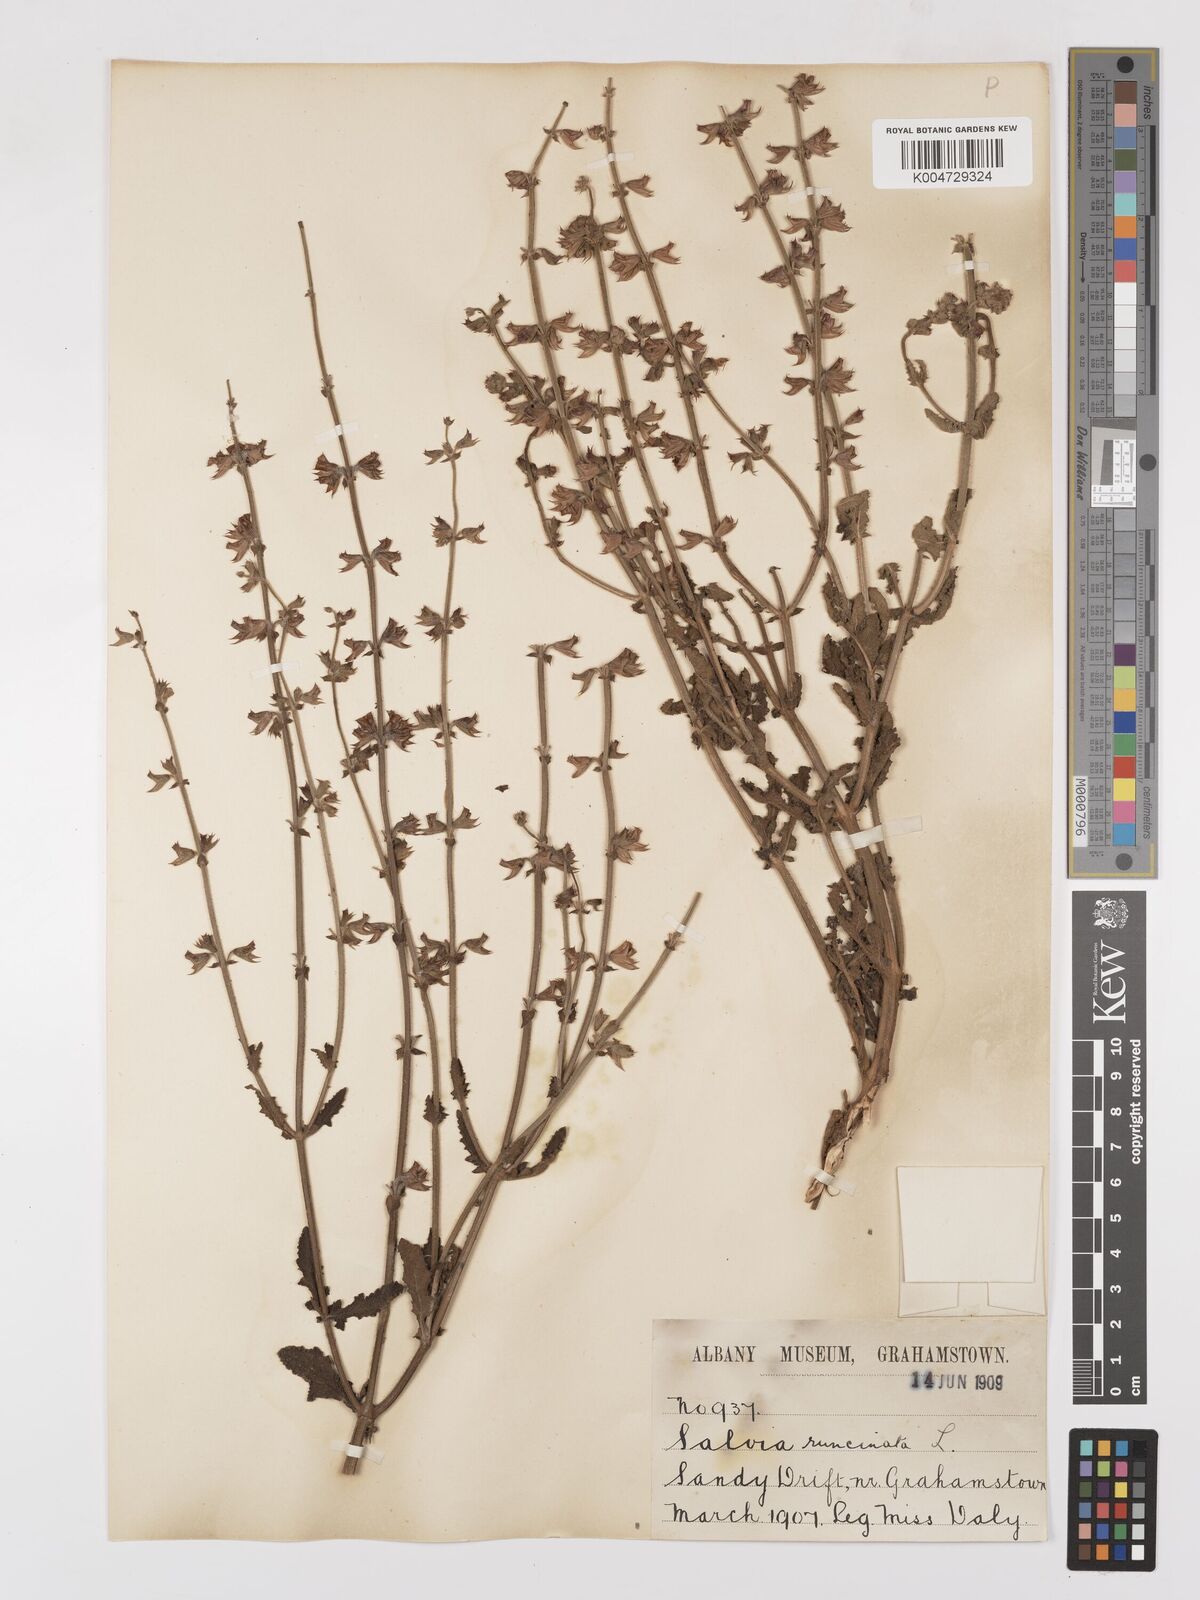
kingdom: Plantae
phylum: Tracheophyta
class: Magnoliopsida
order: Lamiales
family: Lamiaceae
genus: Salvia
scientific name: Salvia runcinata
